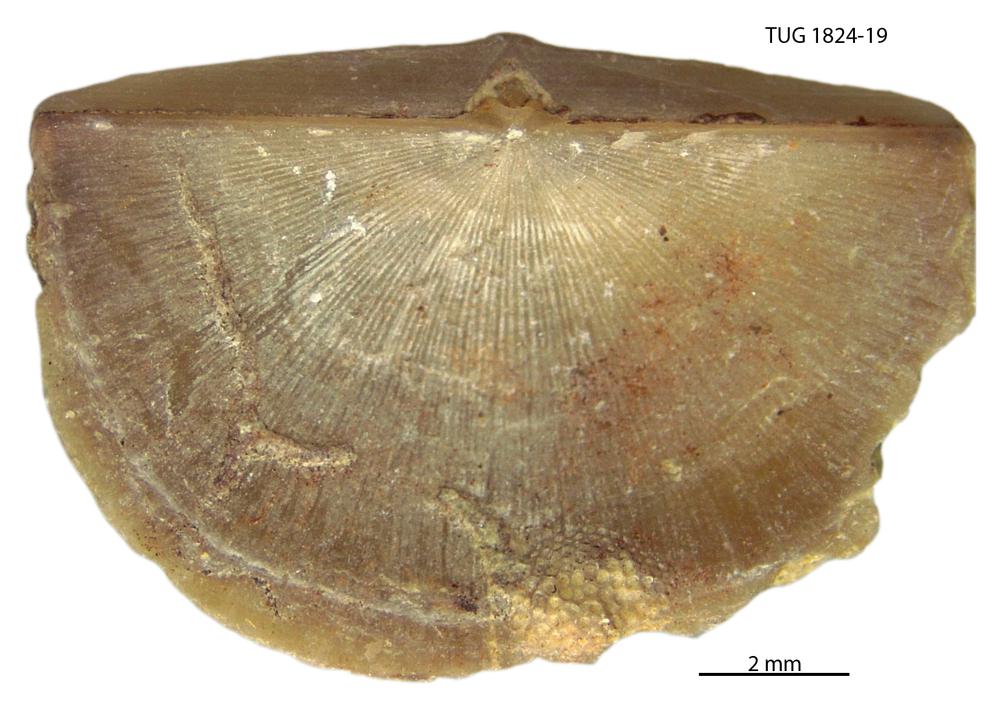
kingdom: Animalia
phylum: Brachiopoda
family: Sowerbyellidae
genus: Sowerbyella
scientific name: Sowerbyella
